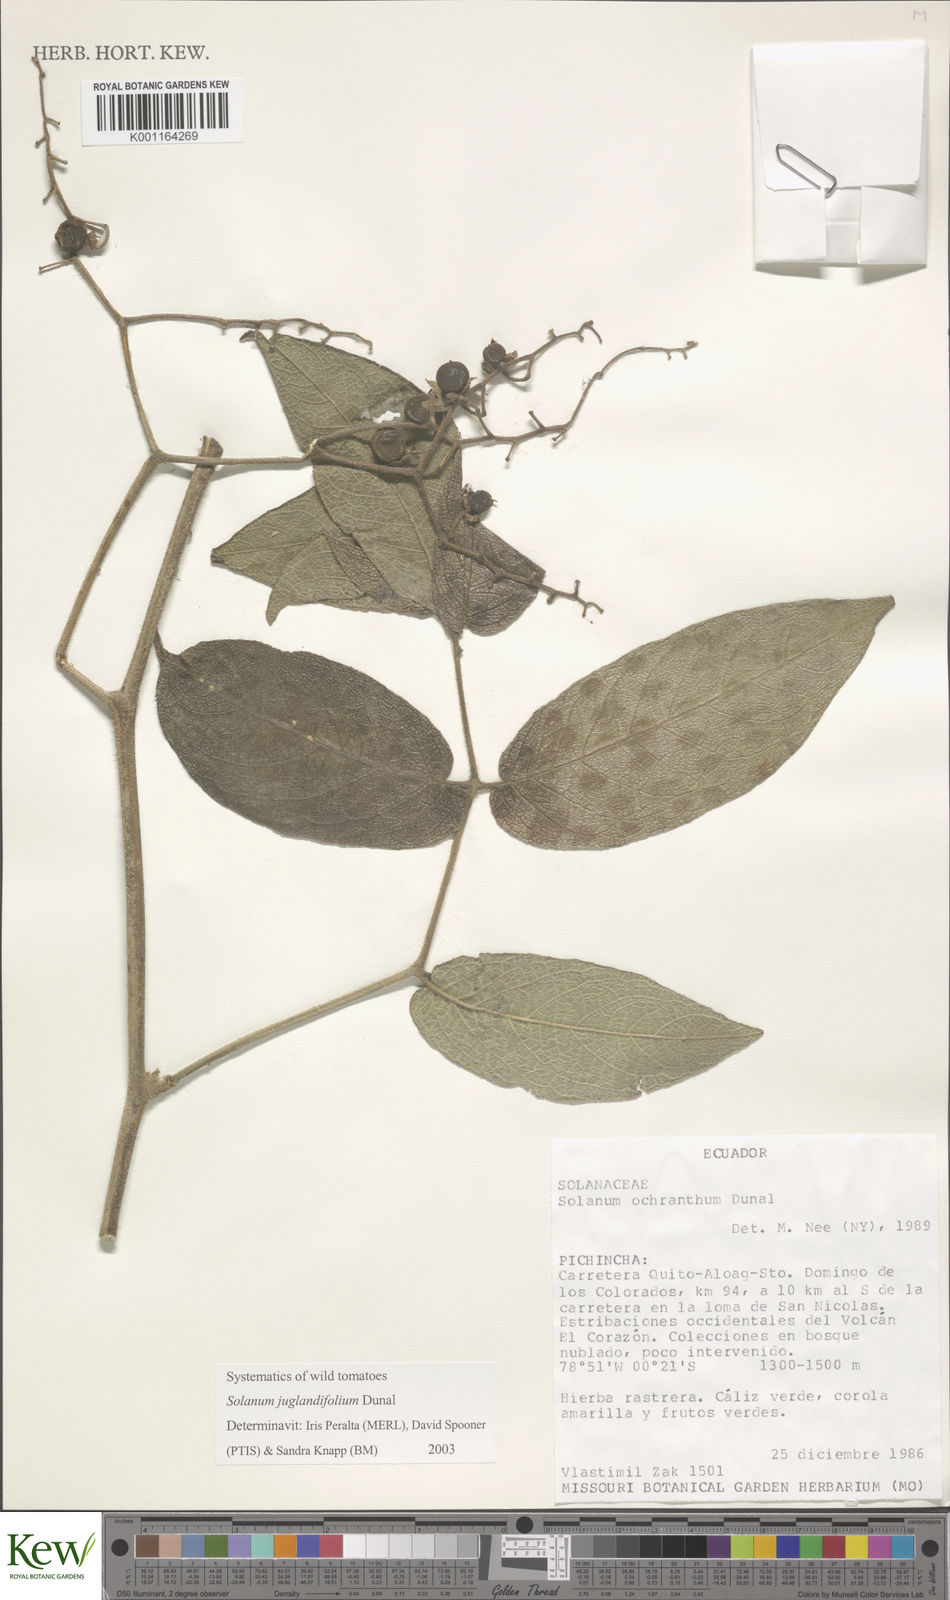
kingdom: Plantae
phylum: Tracheophyta
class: Magnoliopsida
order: Solanales
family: Solanaceae
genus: Solanum
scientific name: Solanum juglandifolium
